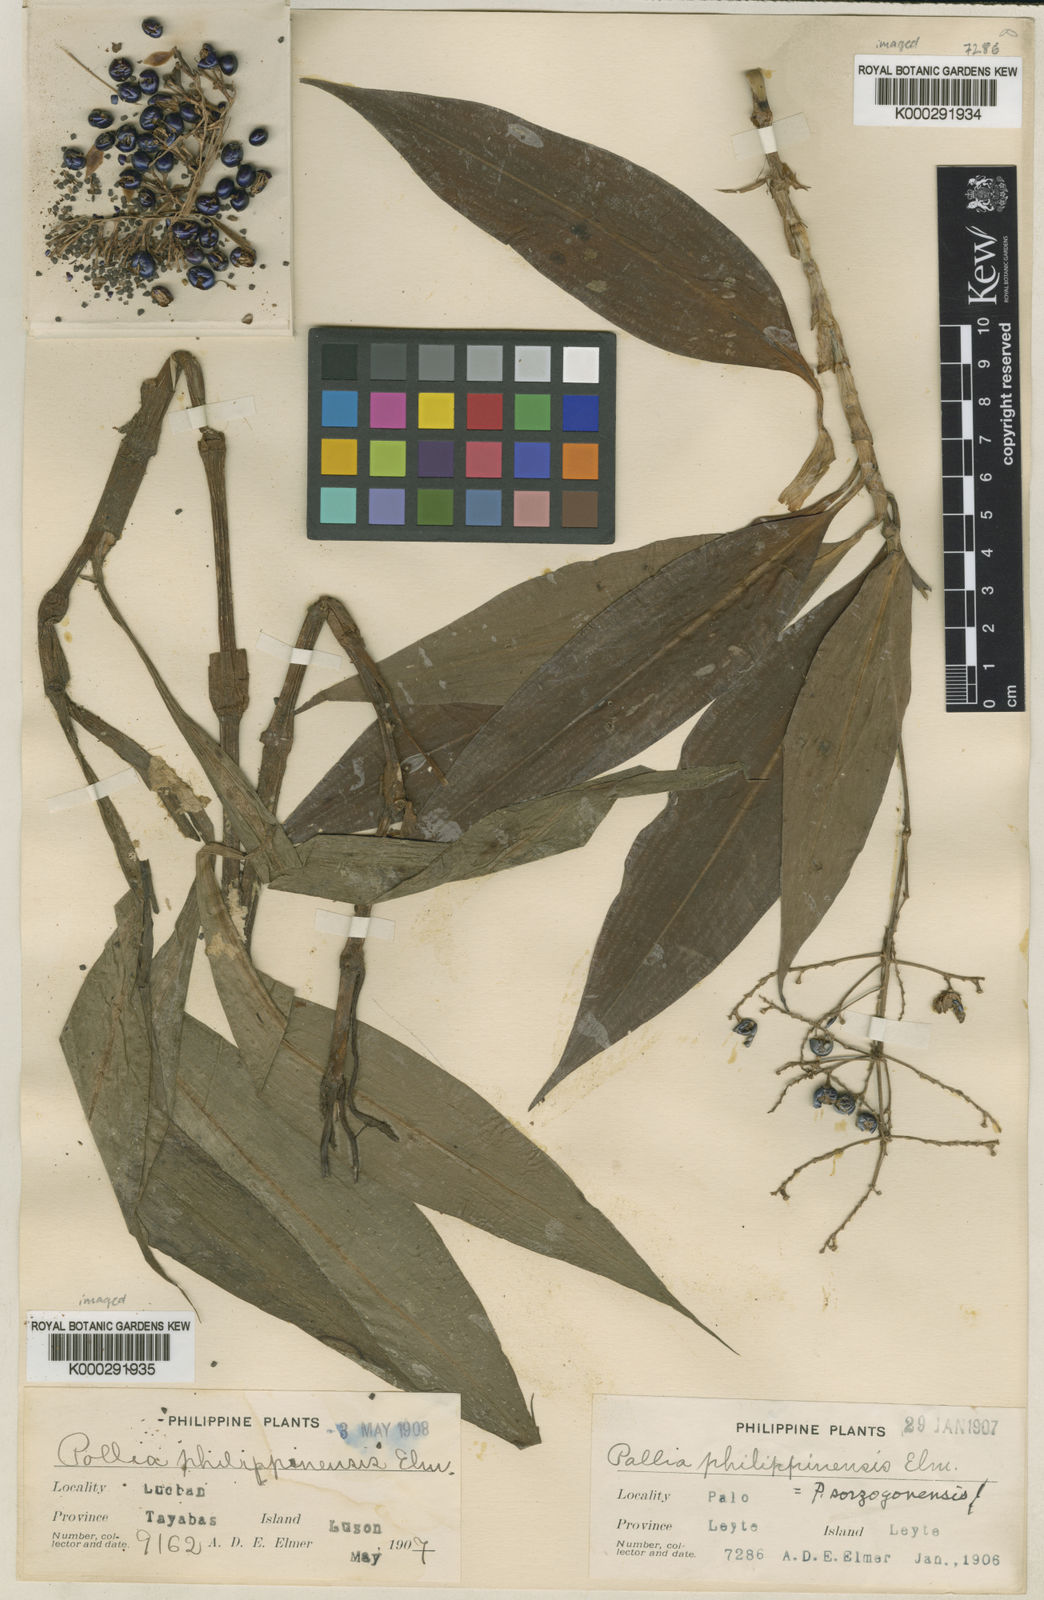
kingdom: Plantae
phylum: Tracheophyta
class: Liliopsida
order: Commelinales
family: Commelinaceae
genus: Pollia
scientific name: Pollia thyrsiflora
